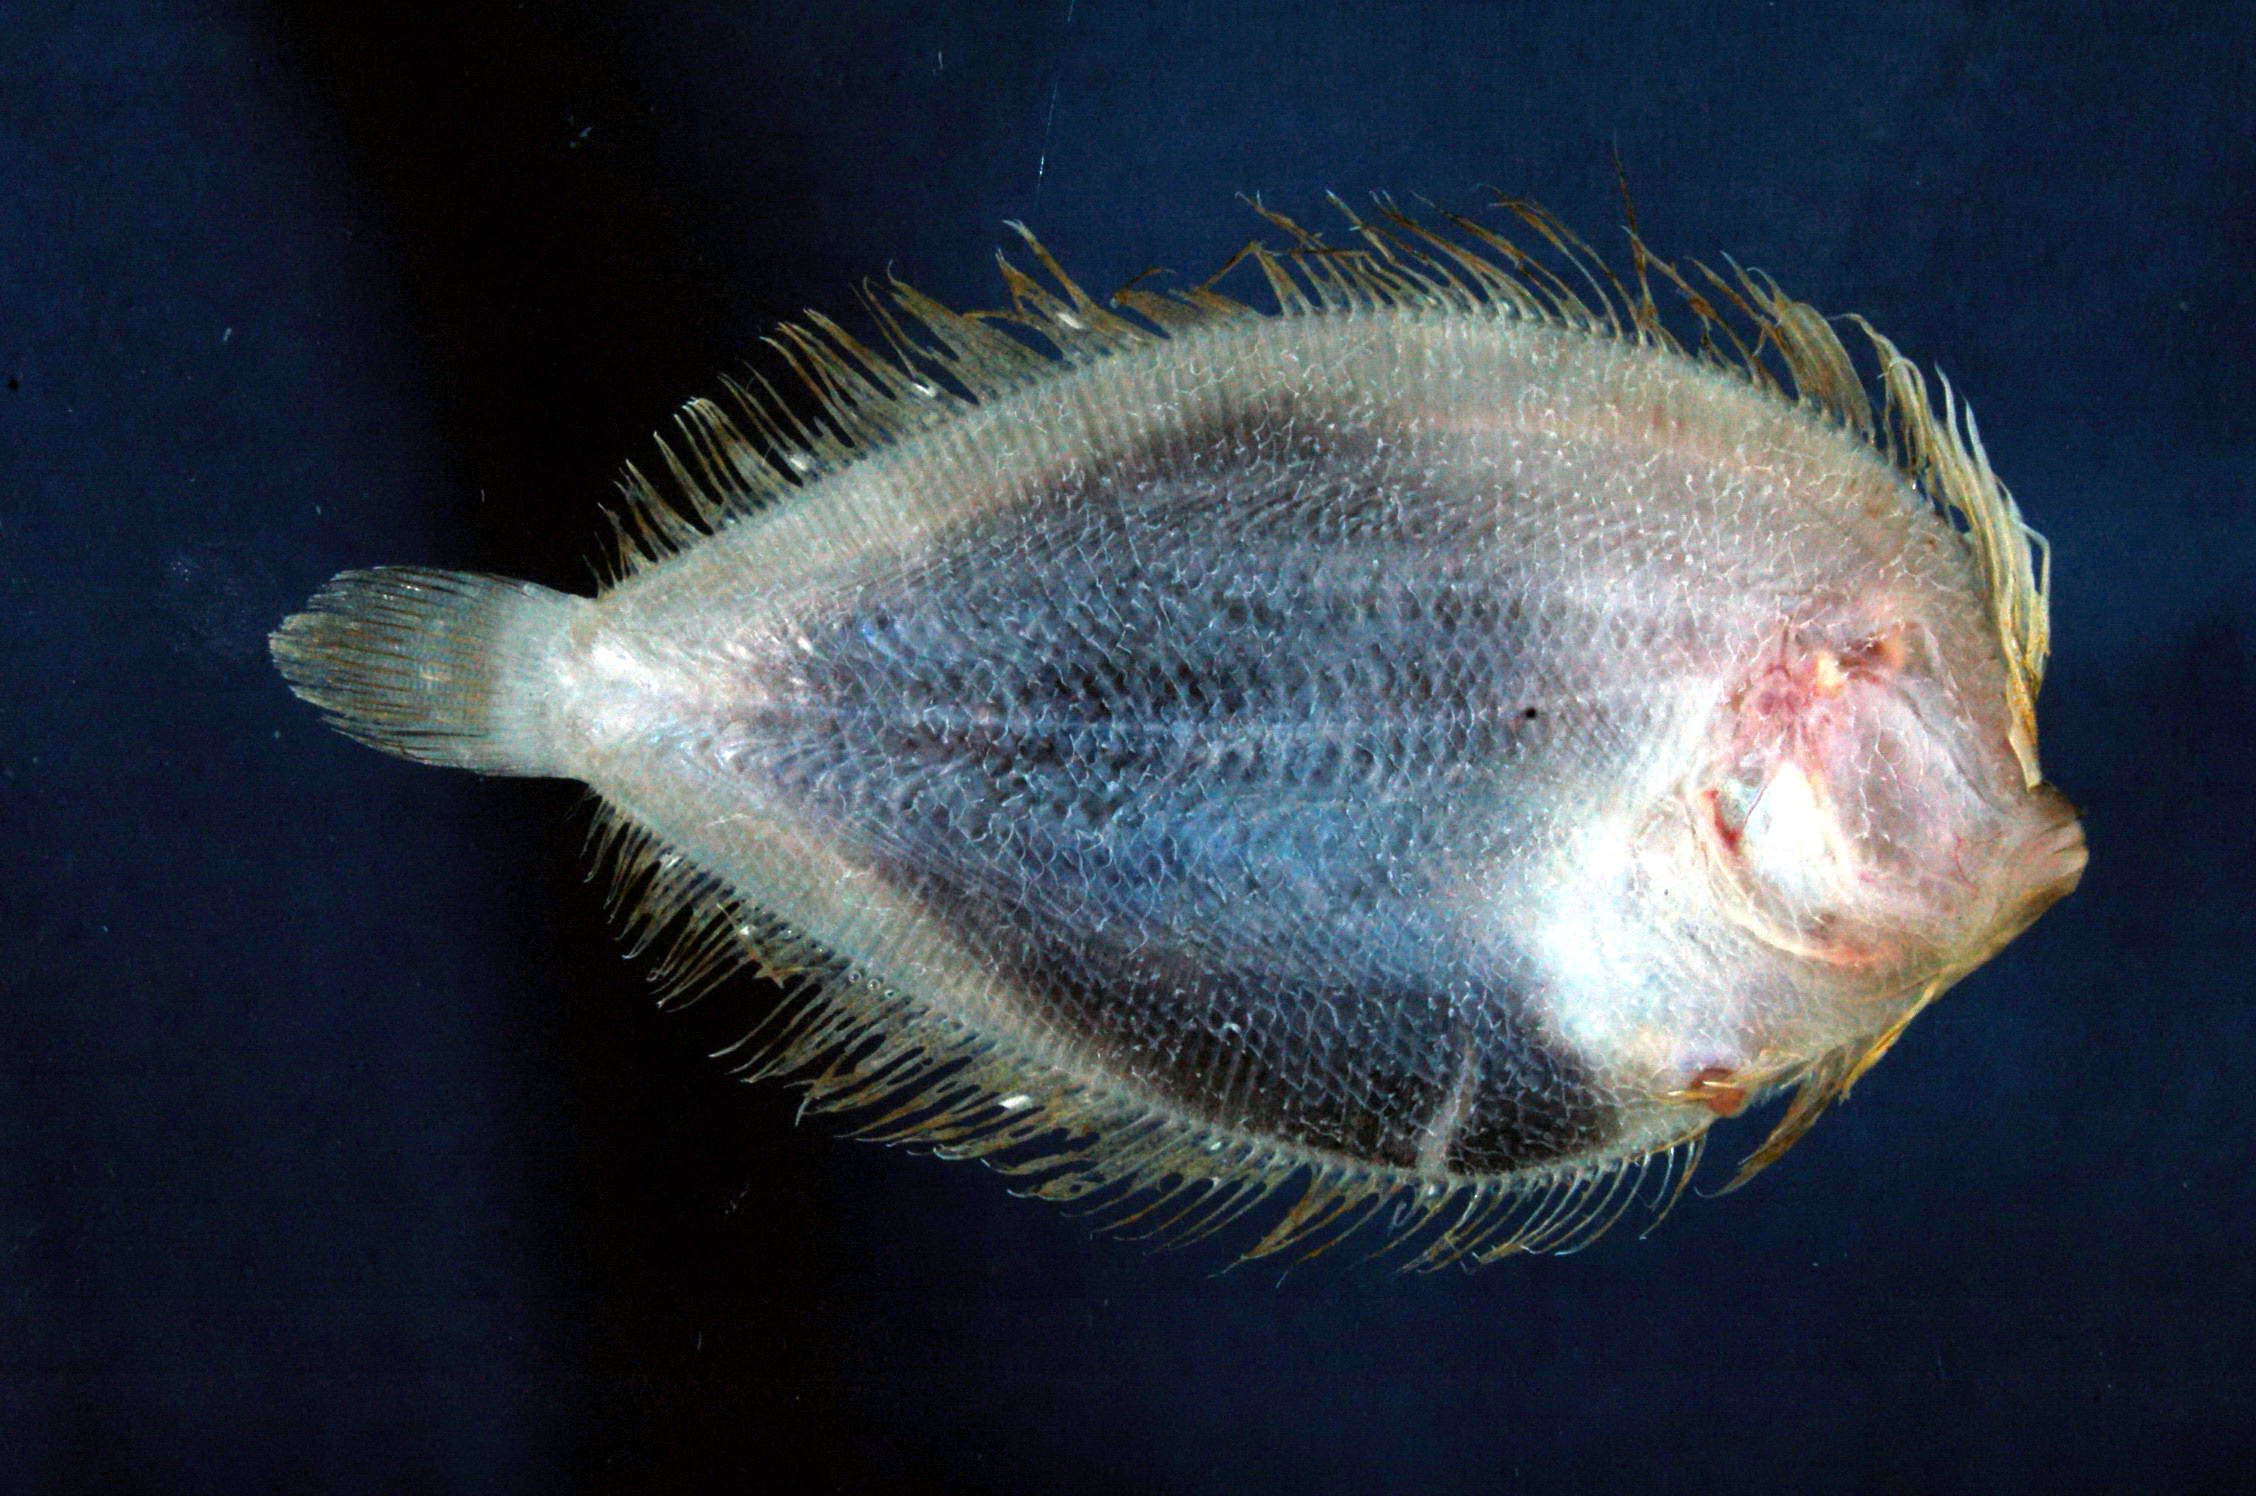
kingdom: Animalia
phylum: Chordata
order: Pleuronectiformes
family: Bothidae
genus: Crossorhombus
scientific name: Crossorhombus valderostratus
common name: Broadbrow flounder
